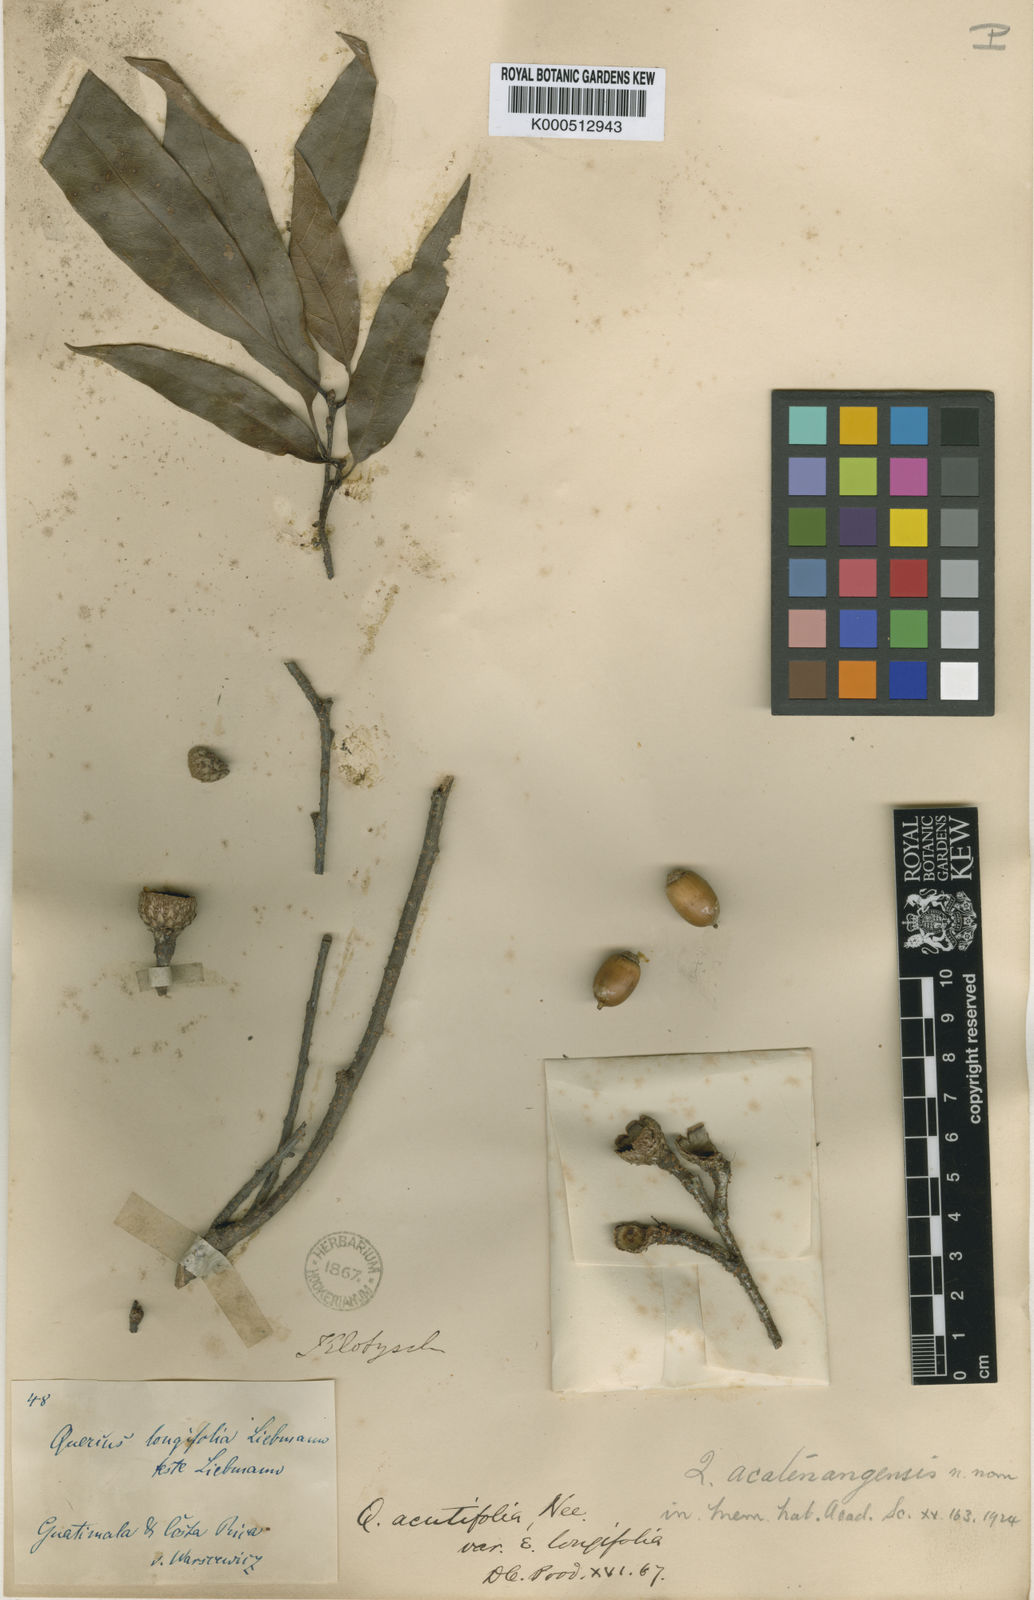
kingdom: Plantae
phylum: Tracheophyta
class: Magnoliopsida
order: Fagales
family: Fagaceae
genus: Quercus
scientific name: Quercus acatenangensis
